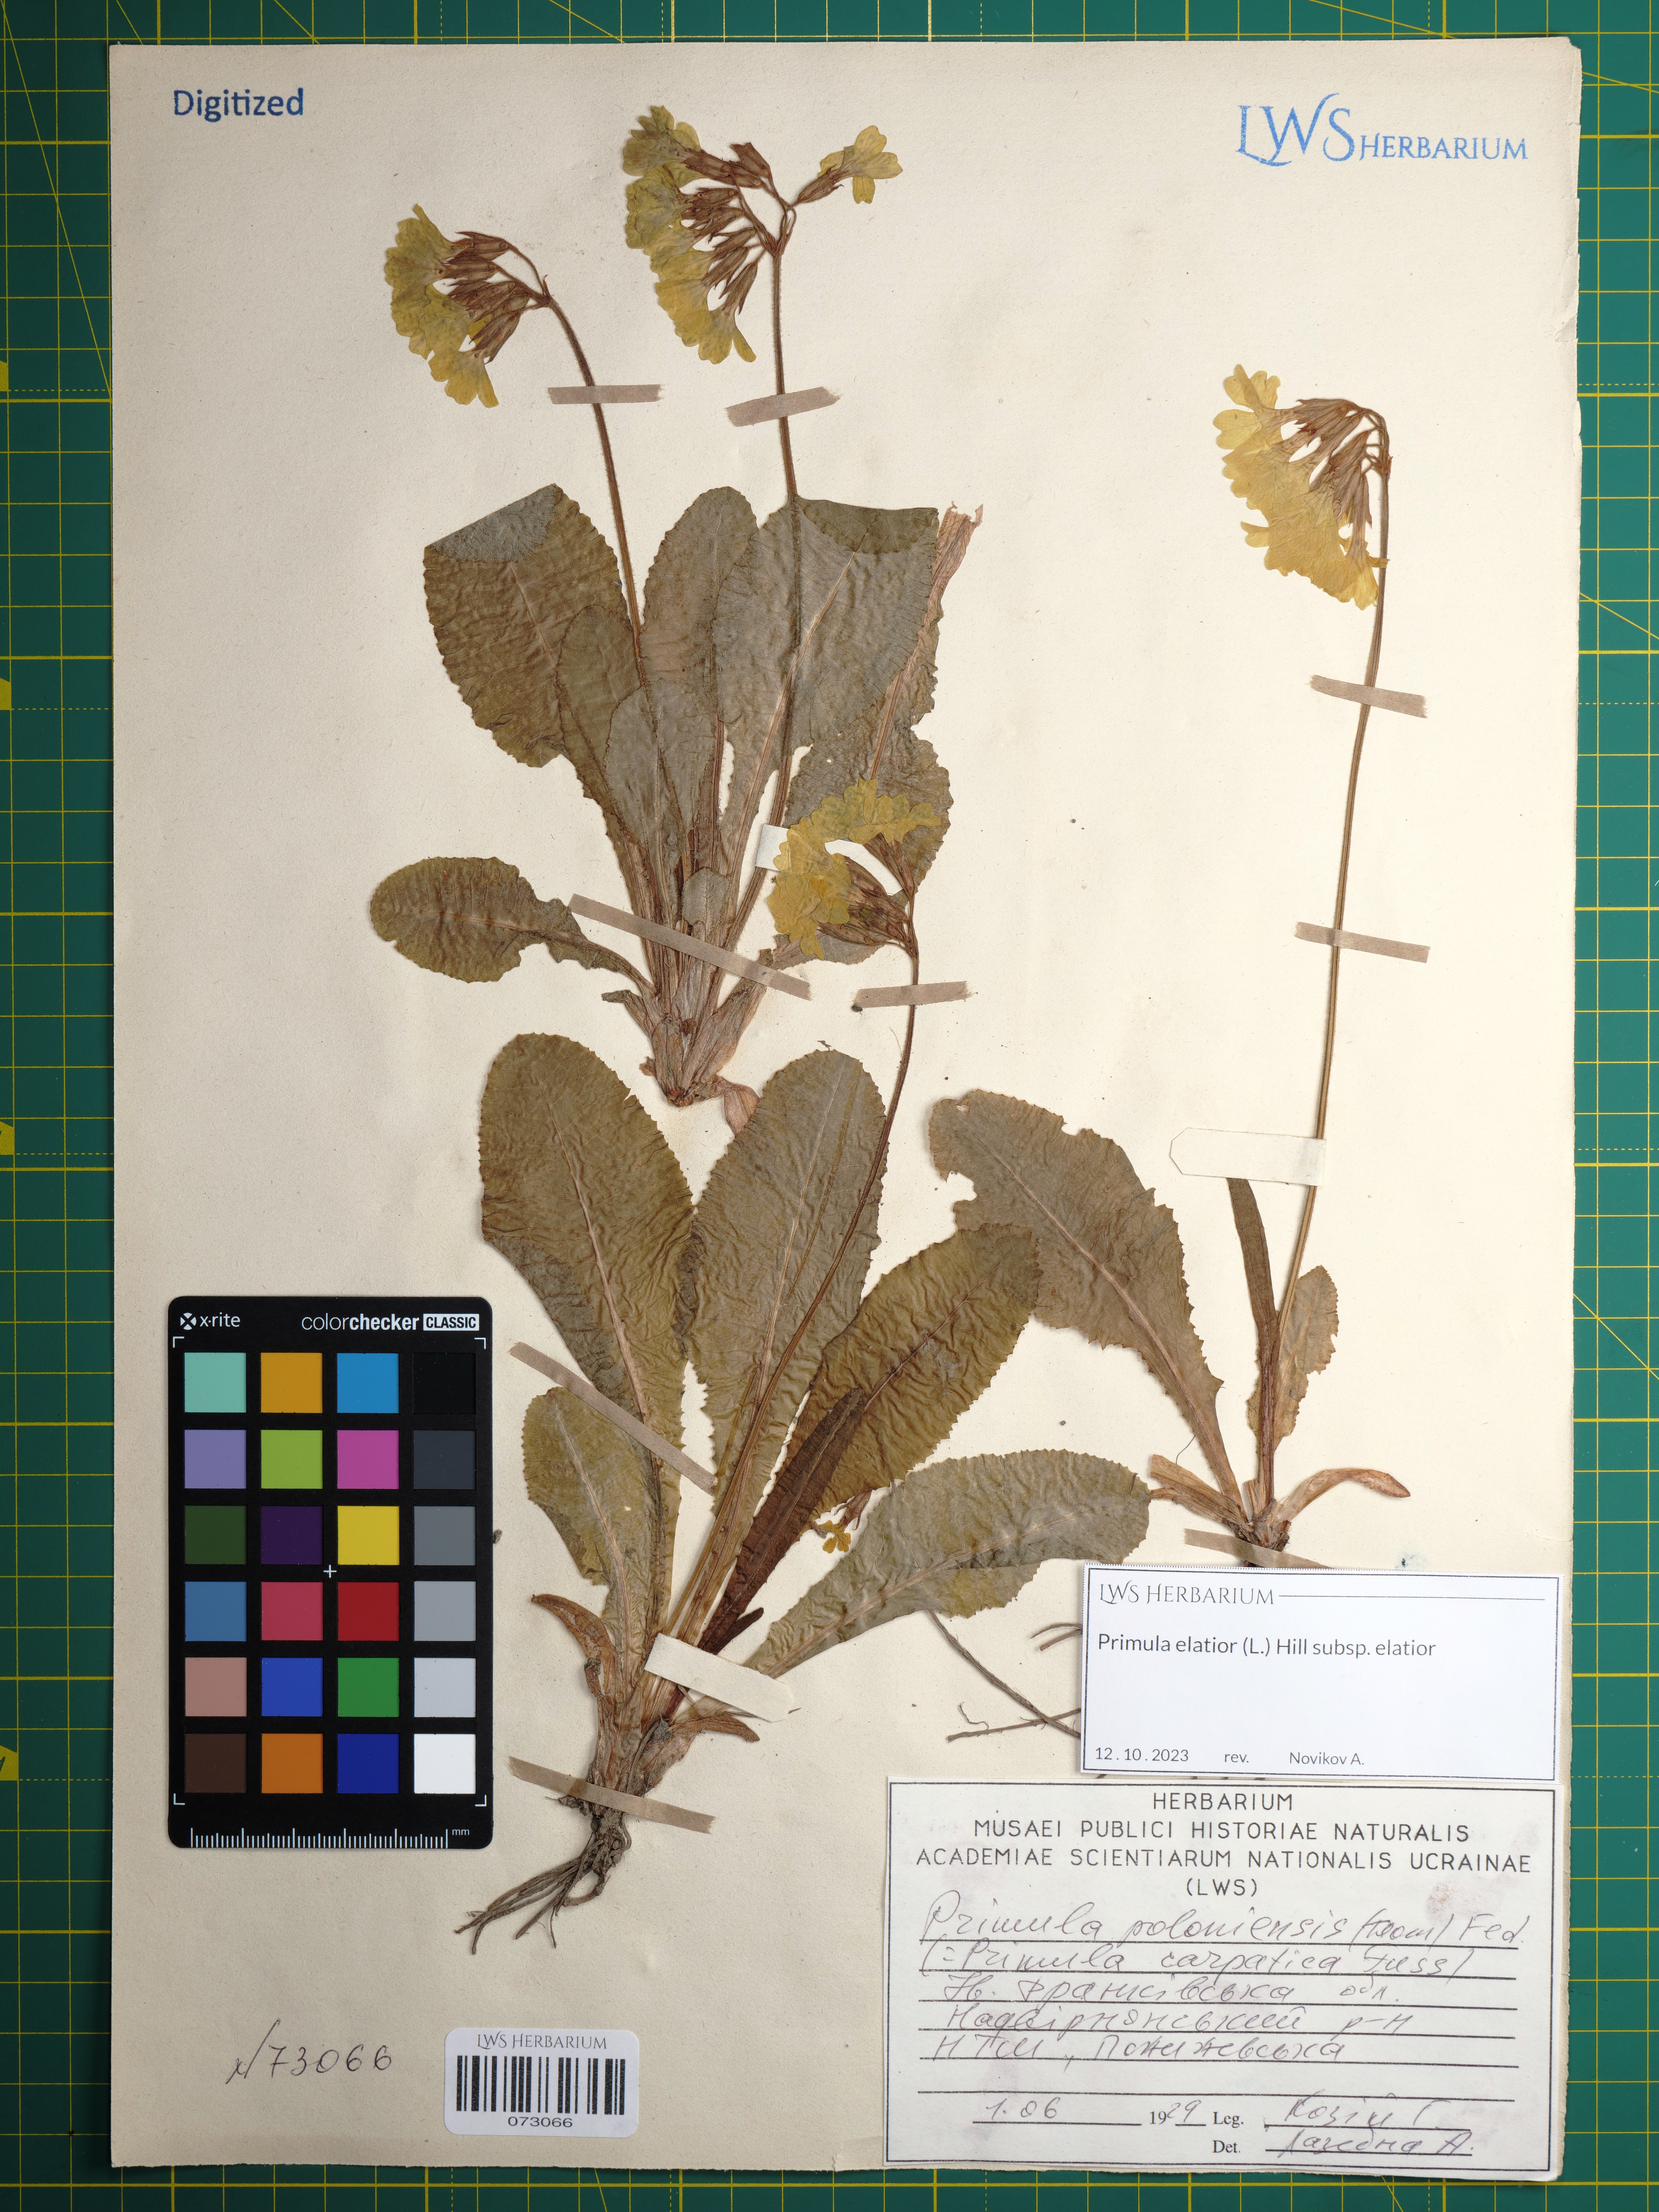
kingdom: Plantae
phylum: Tracheophyta
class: Magnoliopsida
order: Ericales
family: Primulaceae
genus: Primula
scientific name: Primula elatior
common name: Oxlip
